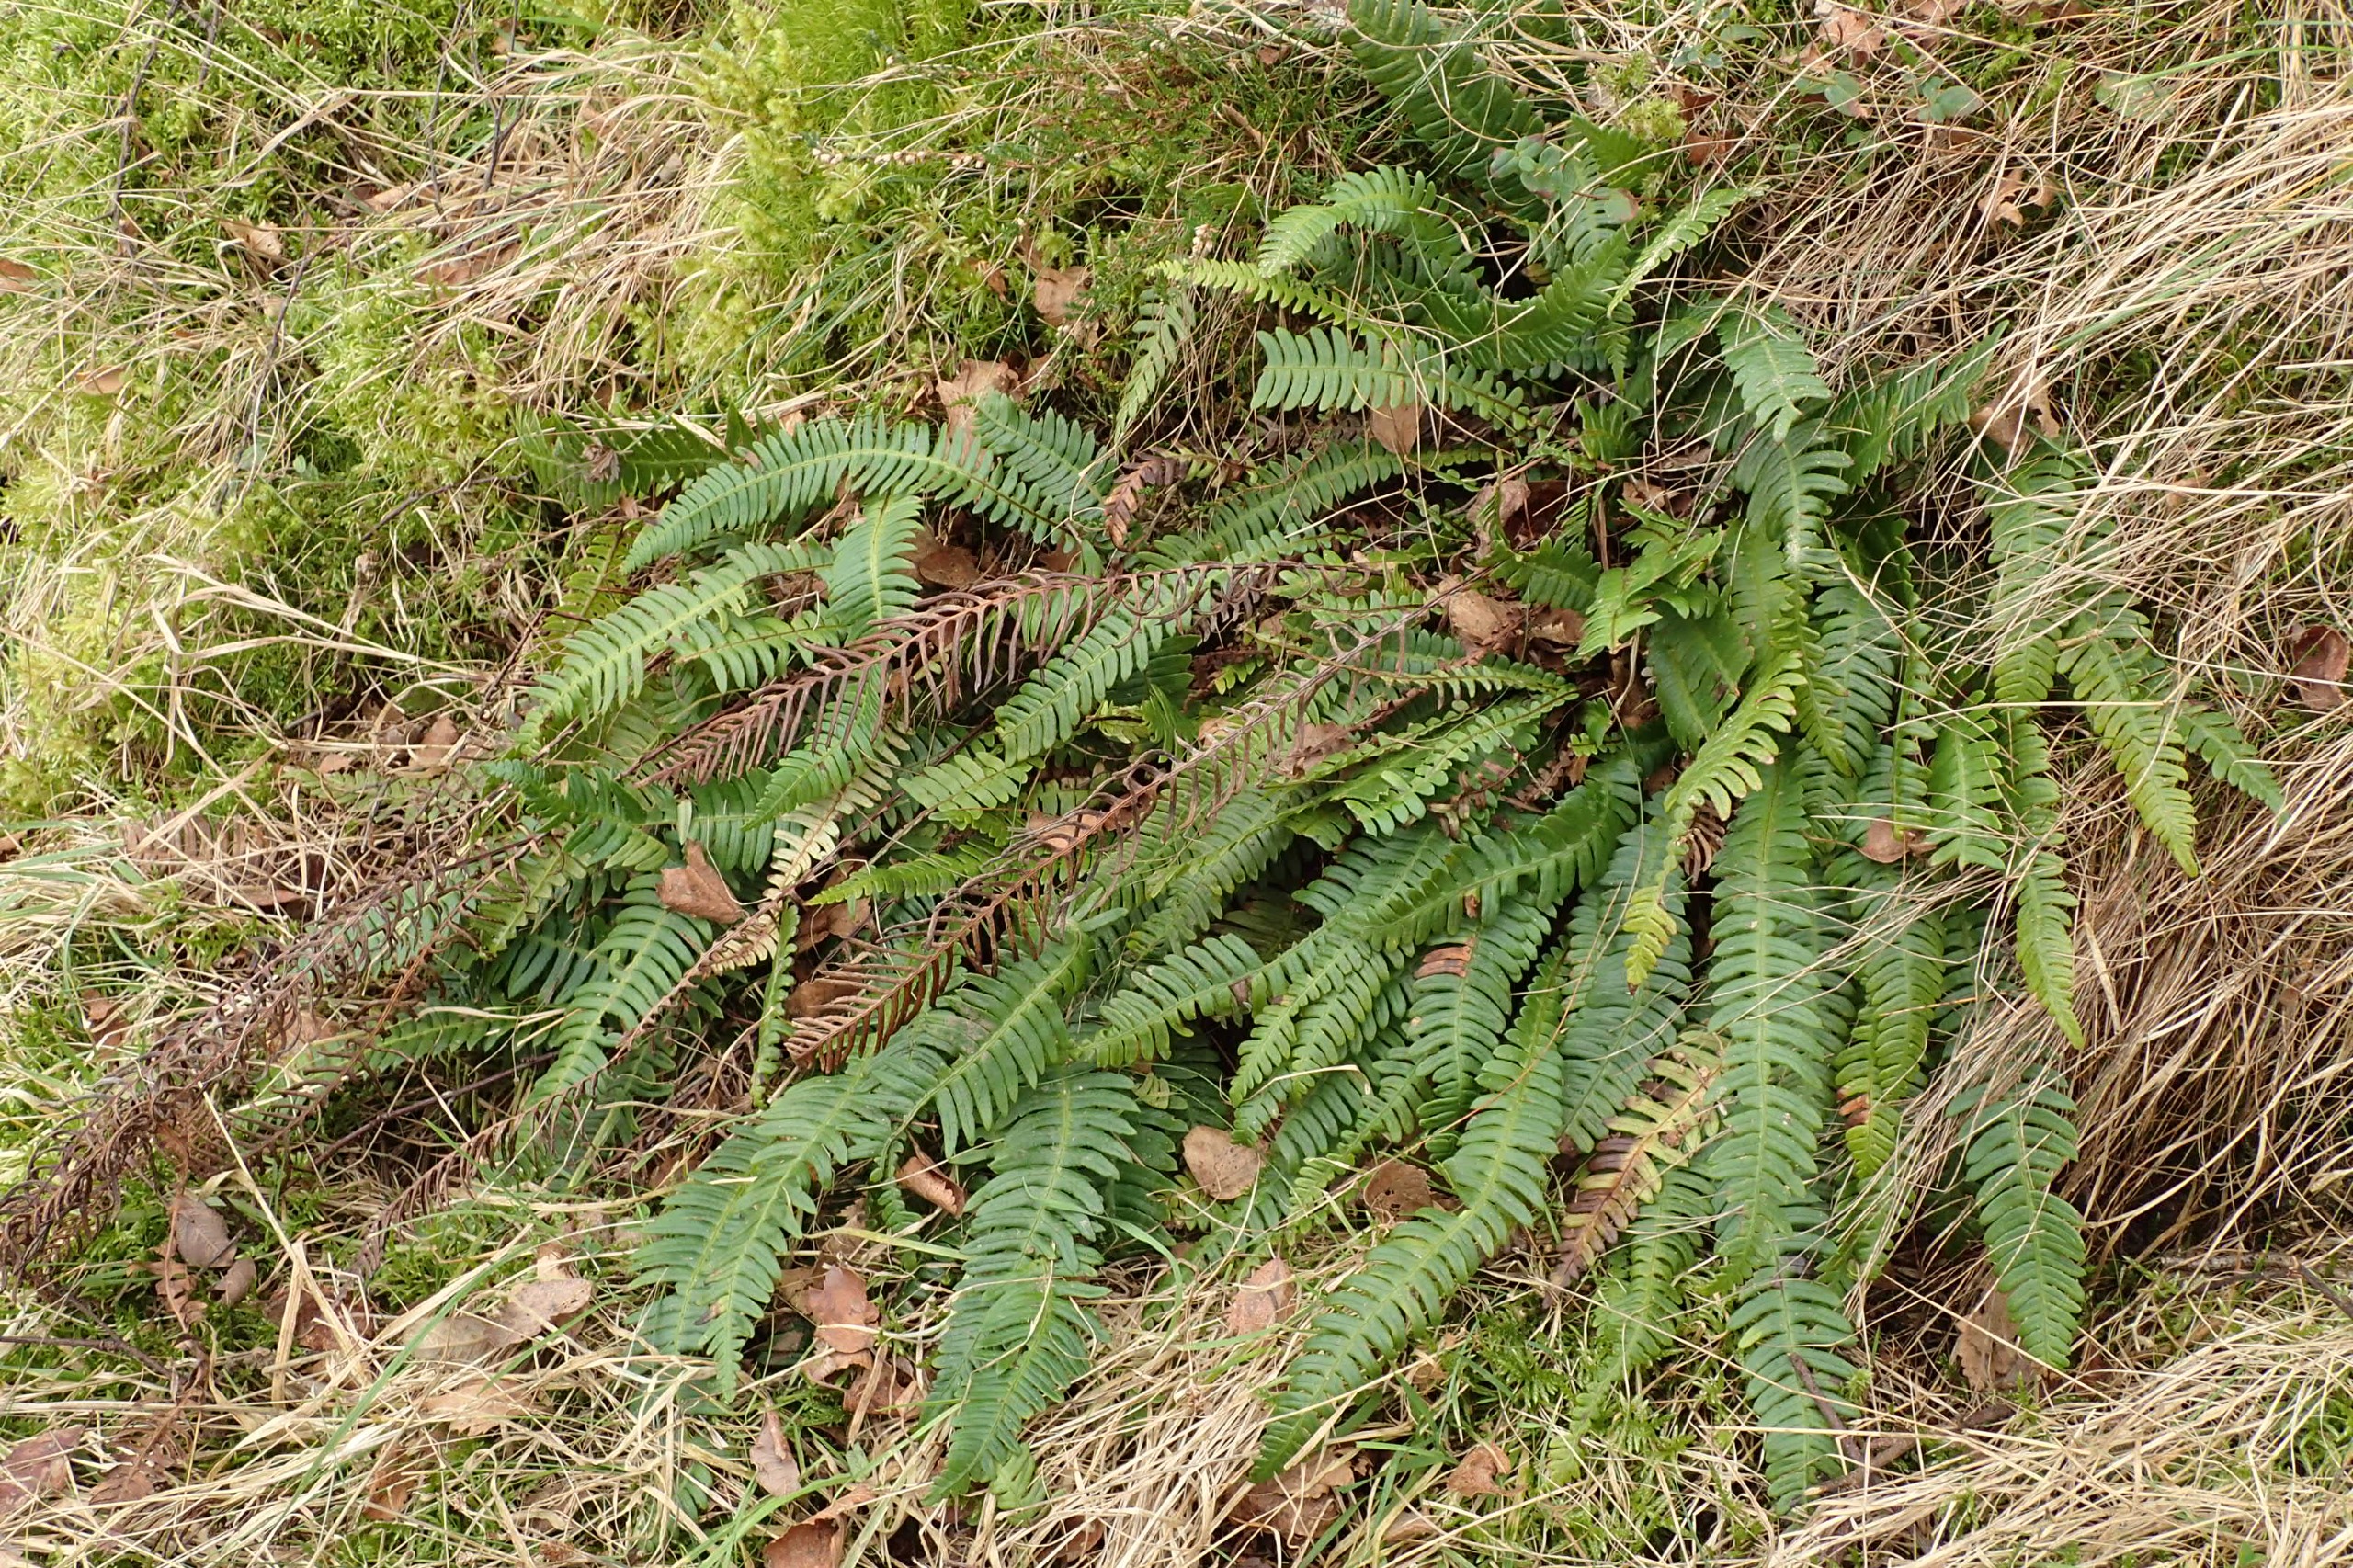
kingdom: Plantae
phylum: Tracheophyta
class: Polypodiopsida
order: Polypodiales
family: Blechnaceae
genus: Struthiopteris
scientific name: Struthiopteris spicant
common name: Kambregne
